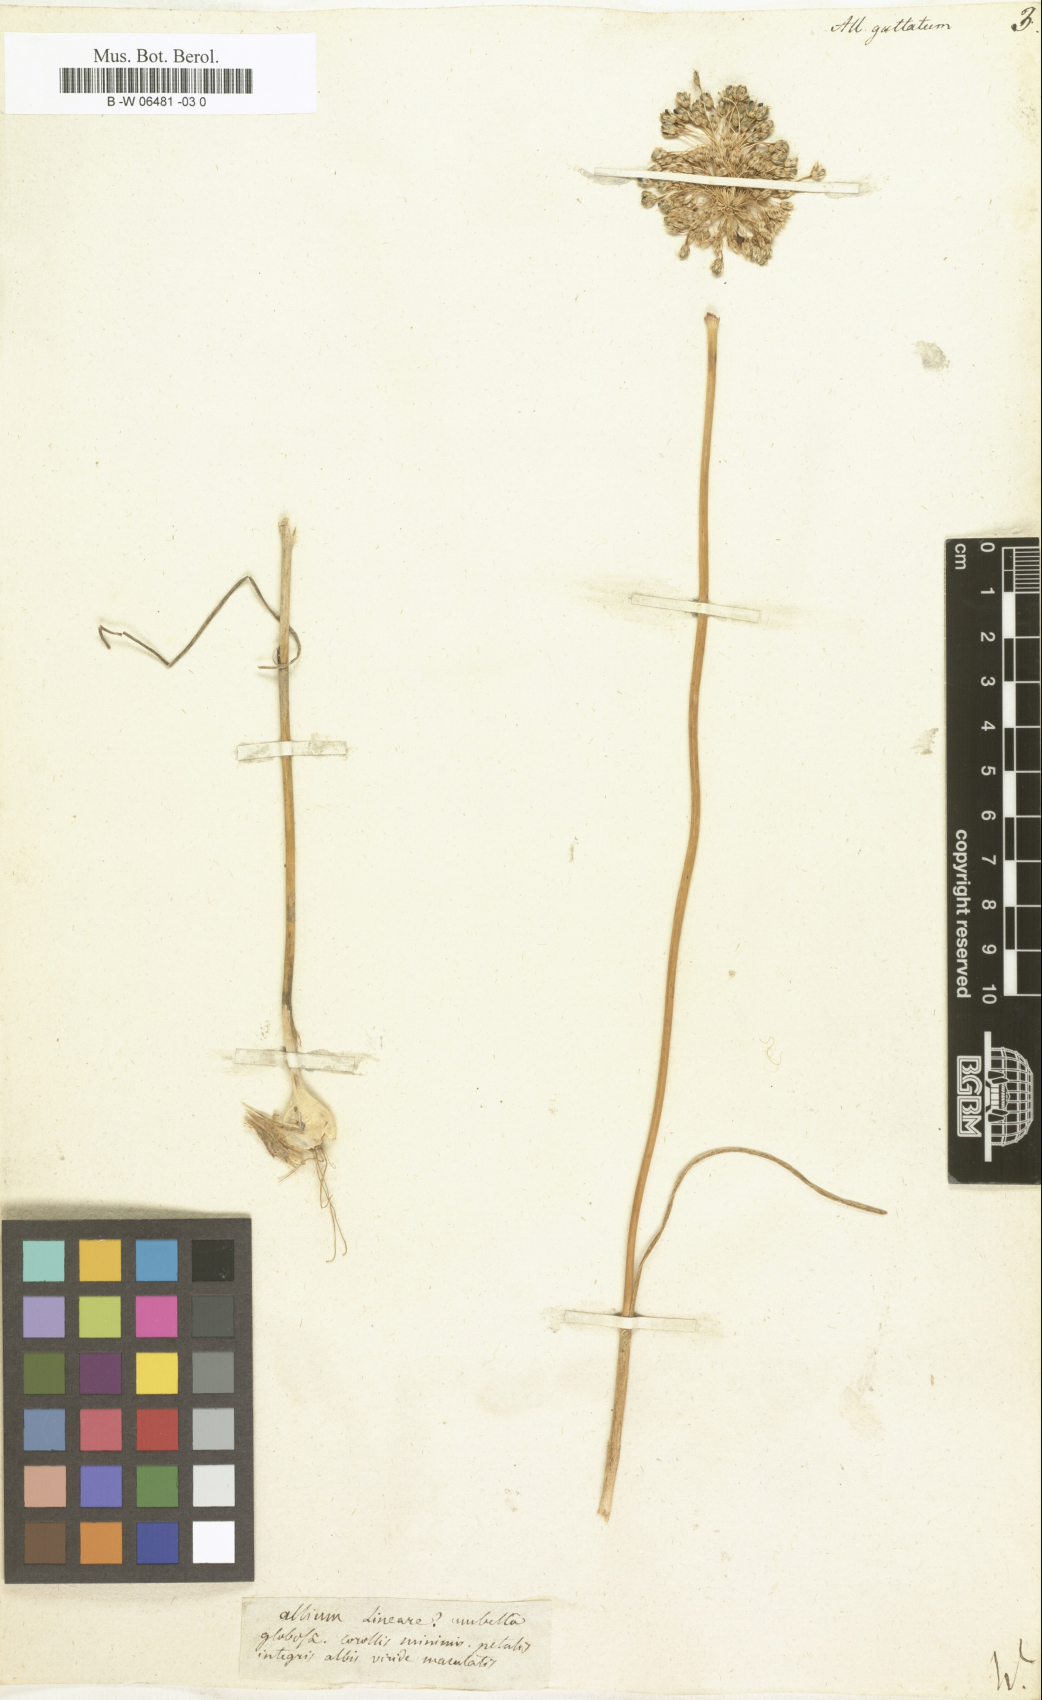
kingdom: Plantae
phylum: Tracheophyta
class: Liliopsida
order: Asparagales
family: Amaryllidaceae
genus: Allium
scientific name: Allium guttatum
